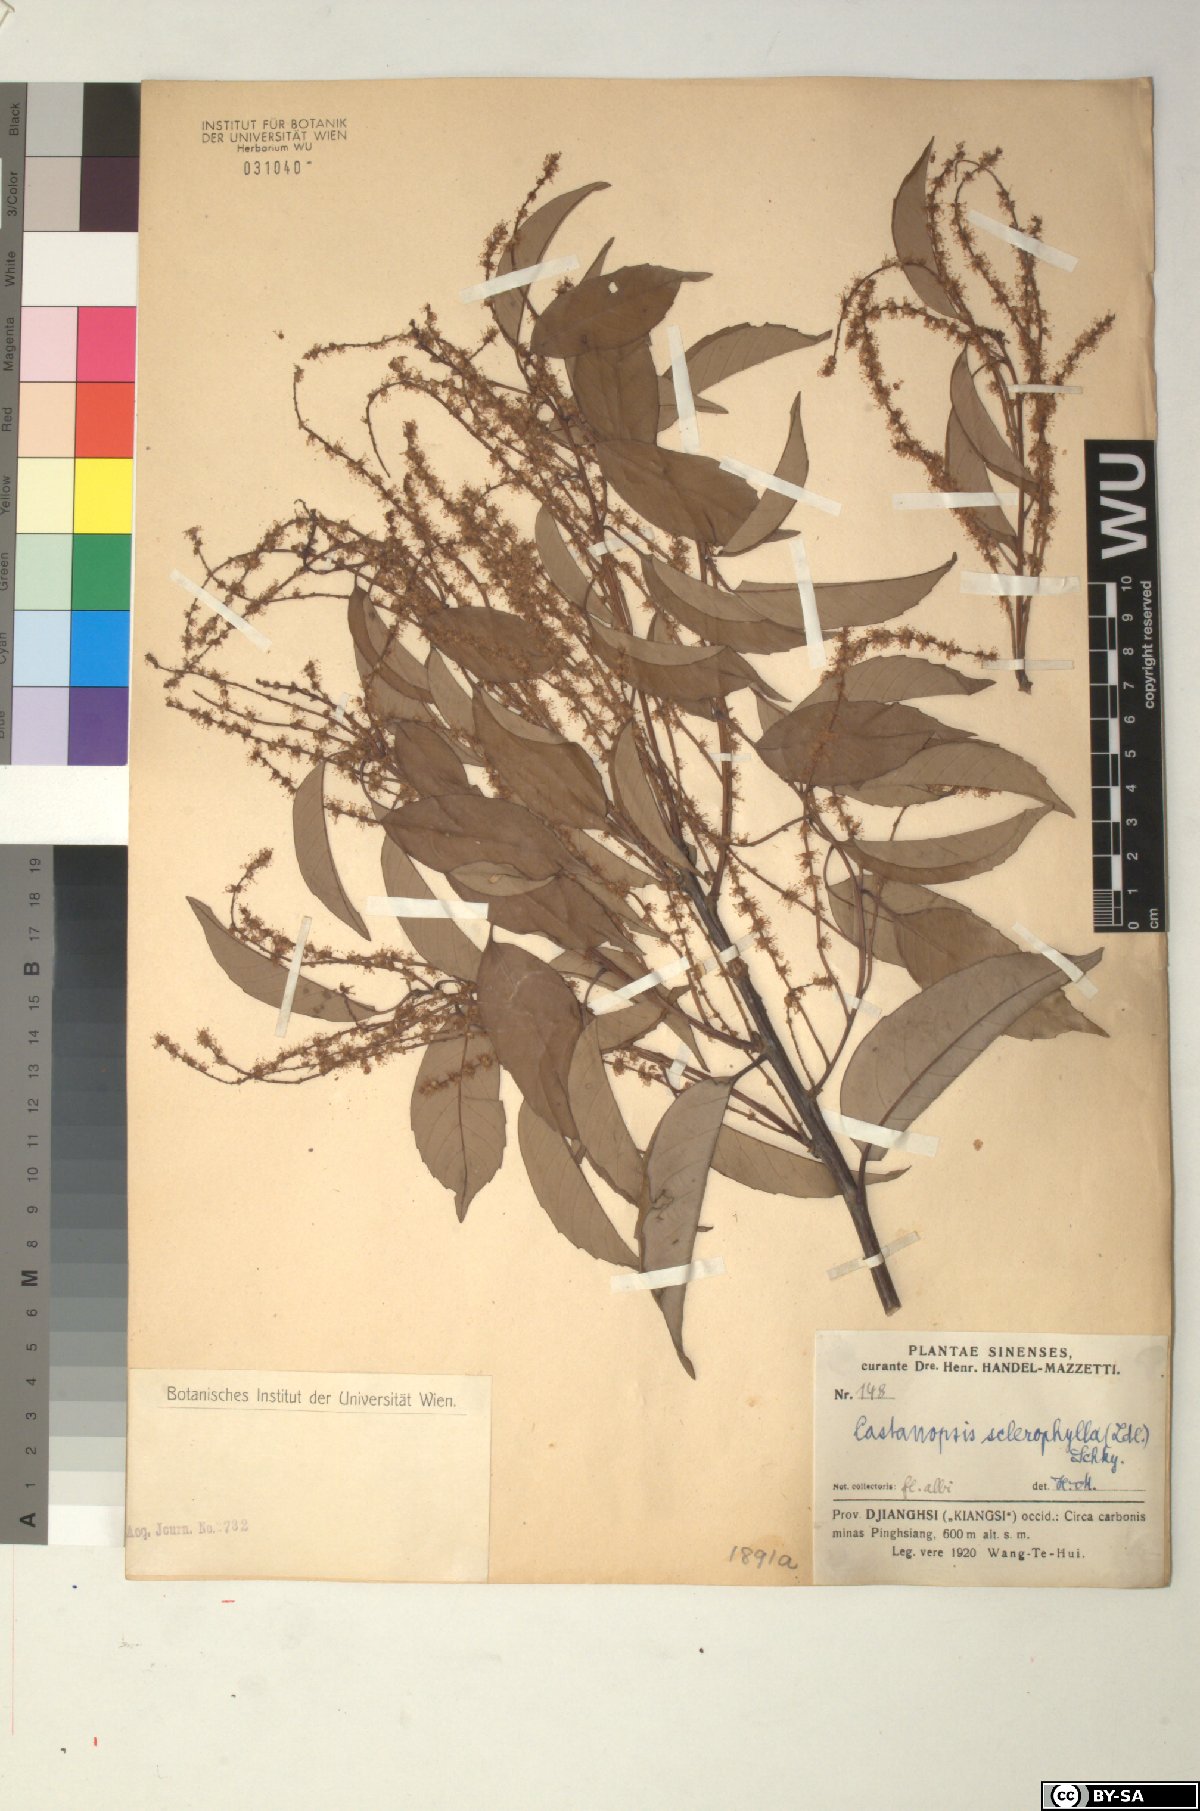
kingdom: Plantae
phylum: Tracheophyta
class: Magnoliopsida
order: Fagales
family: Fagaceae
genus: Castanopsis
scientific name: Castanopsis sclerophylla
